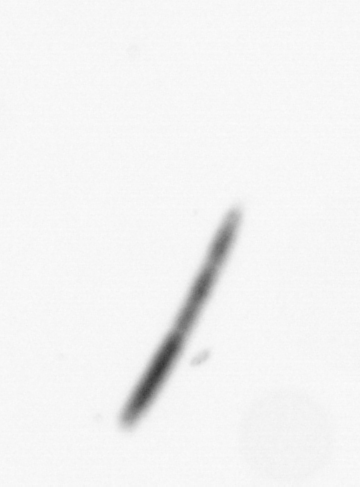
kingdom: Chromista
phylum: Ochrophyta
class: Bacillariophyceae
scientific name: Bacillariophyceae
